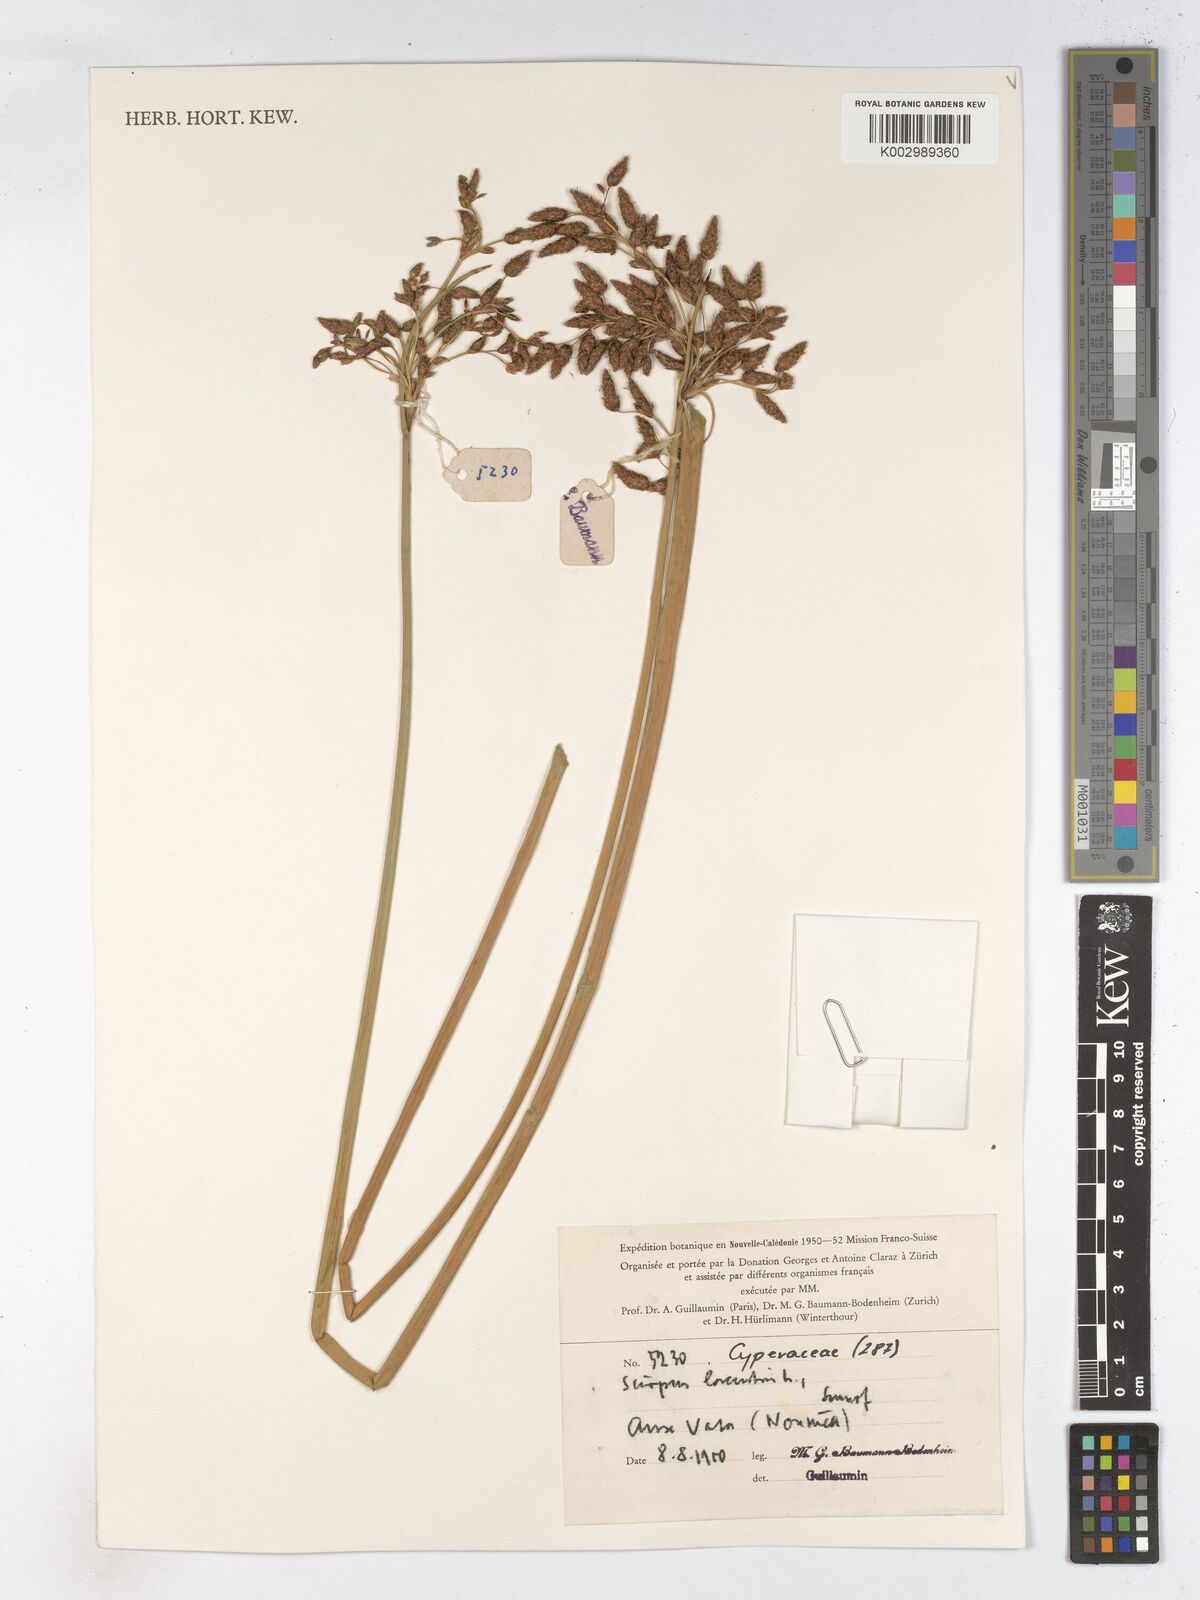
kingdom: Plantae
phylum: Tracheophyta
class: Liliopsida
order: Poales
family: Cyperaceae
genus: Schoenoplectus
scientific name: Schoenoplectus lacustris
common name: Common club-rush
